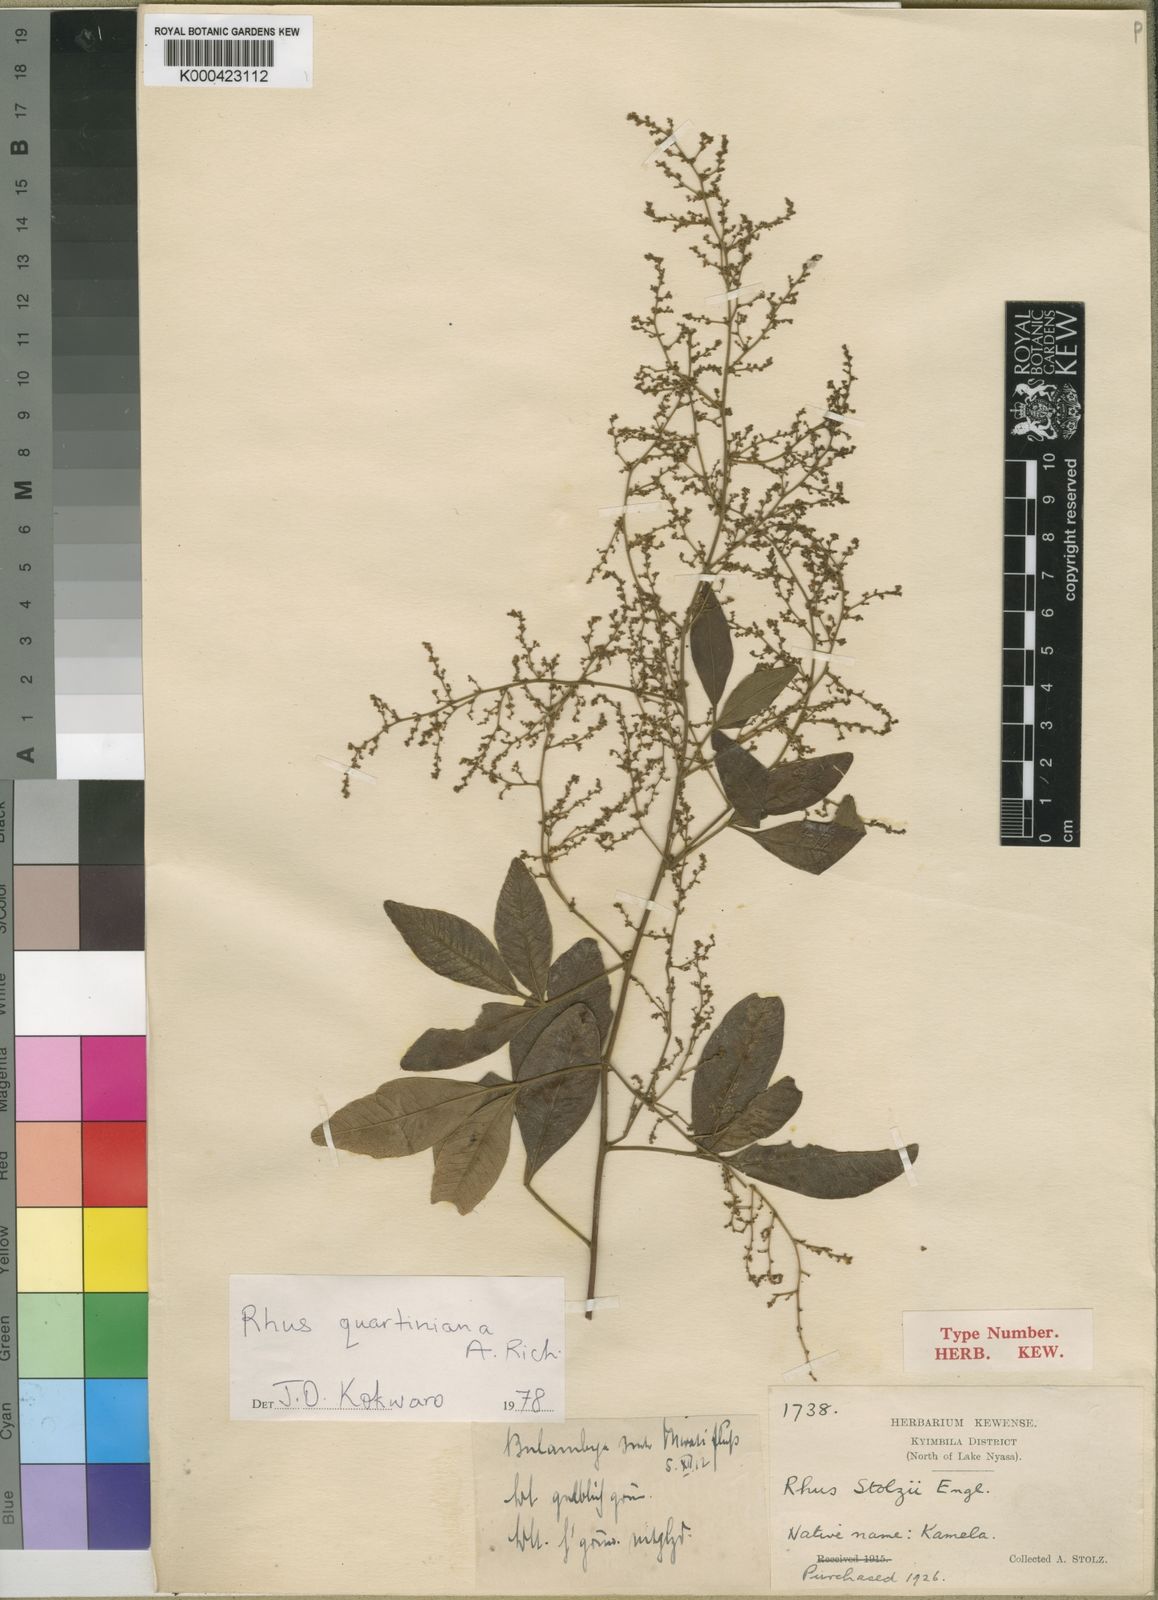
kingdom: Plantae
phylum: Tracheophyta
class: Magnoliopsida
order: Sapindales
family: Anacardiaceae
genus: Searsia
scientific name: Searsia quartiniana
